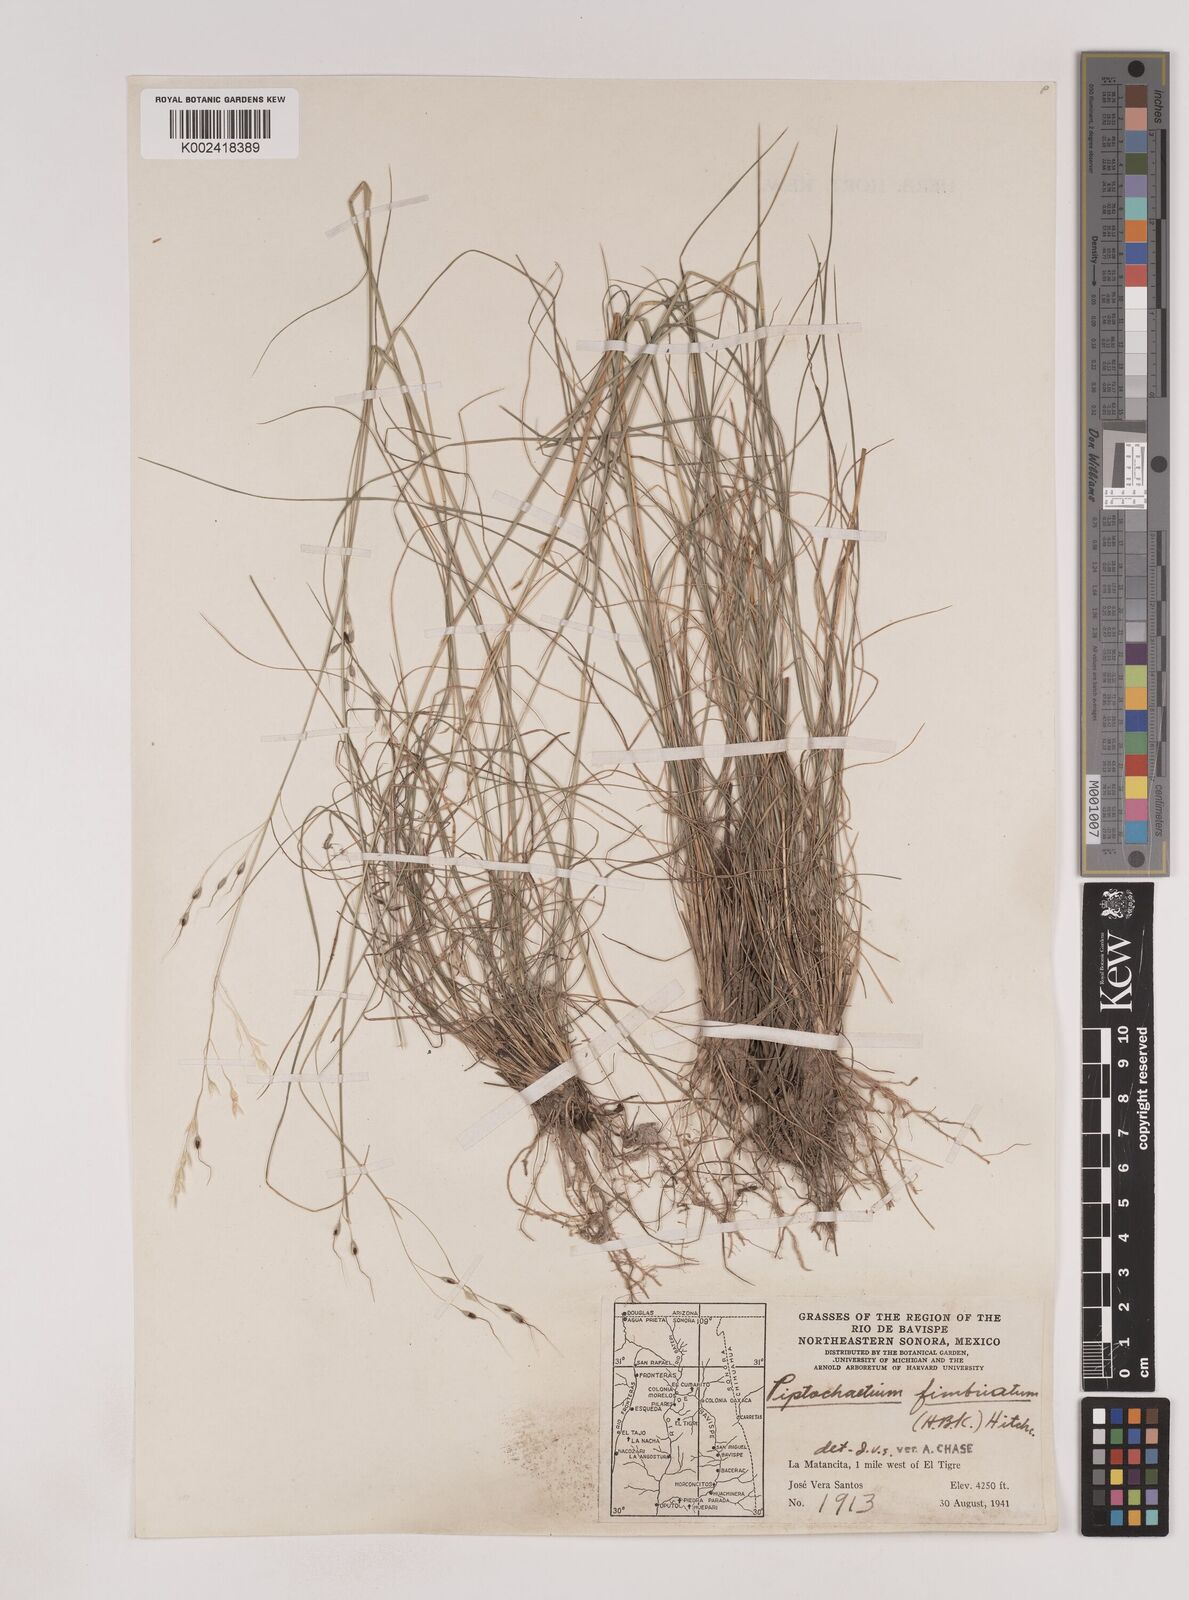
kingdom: Plantae
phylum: Tracheophyta
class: Liliopsida
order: Poales
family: Poaceae
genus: Piptochaetium
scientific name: Piptochaetium fimbriatum
